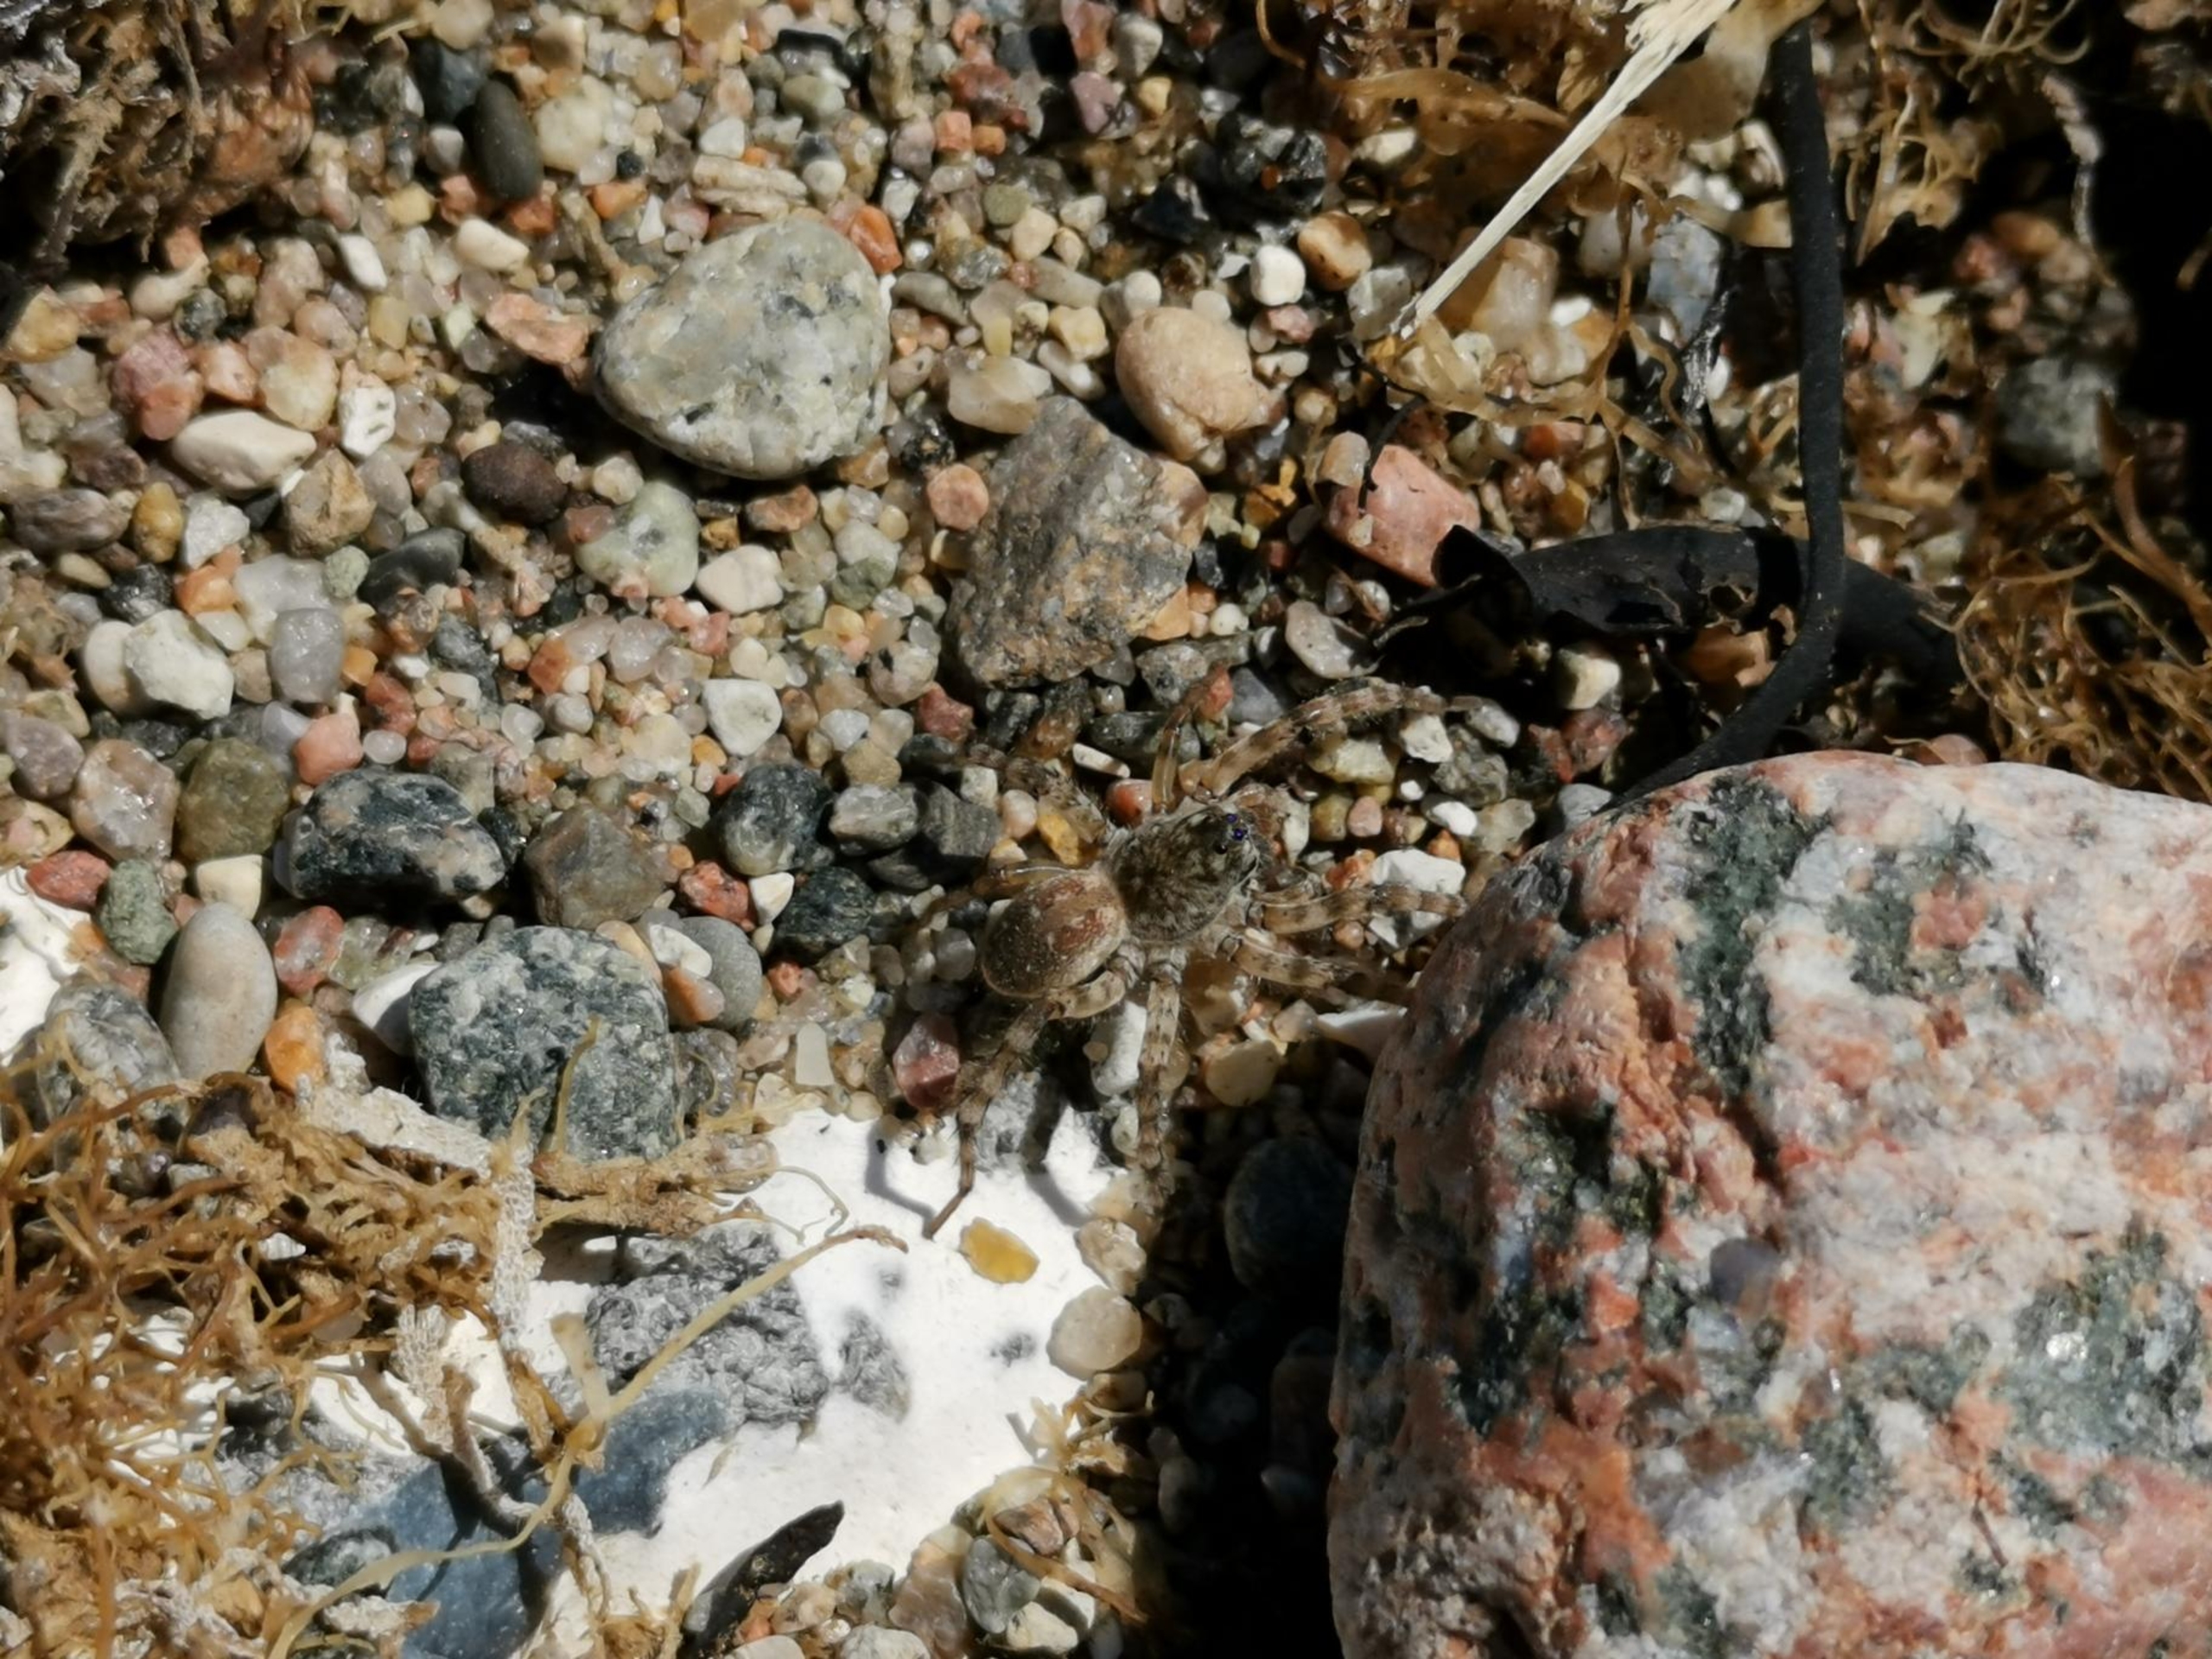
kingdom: Animalia
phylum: Arthropoda
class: Arachnida
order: Araneae
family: Lycosidae
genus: Arctosa
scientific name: Arctosa cinerea
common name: Sandgraveedderkop
